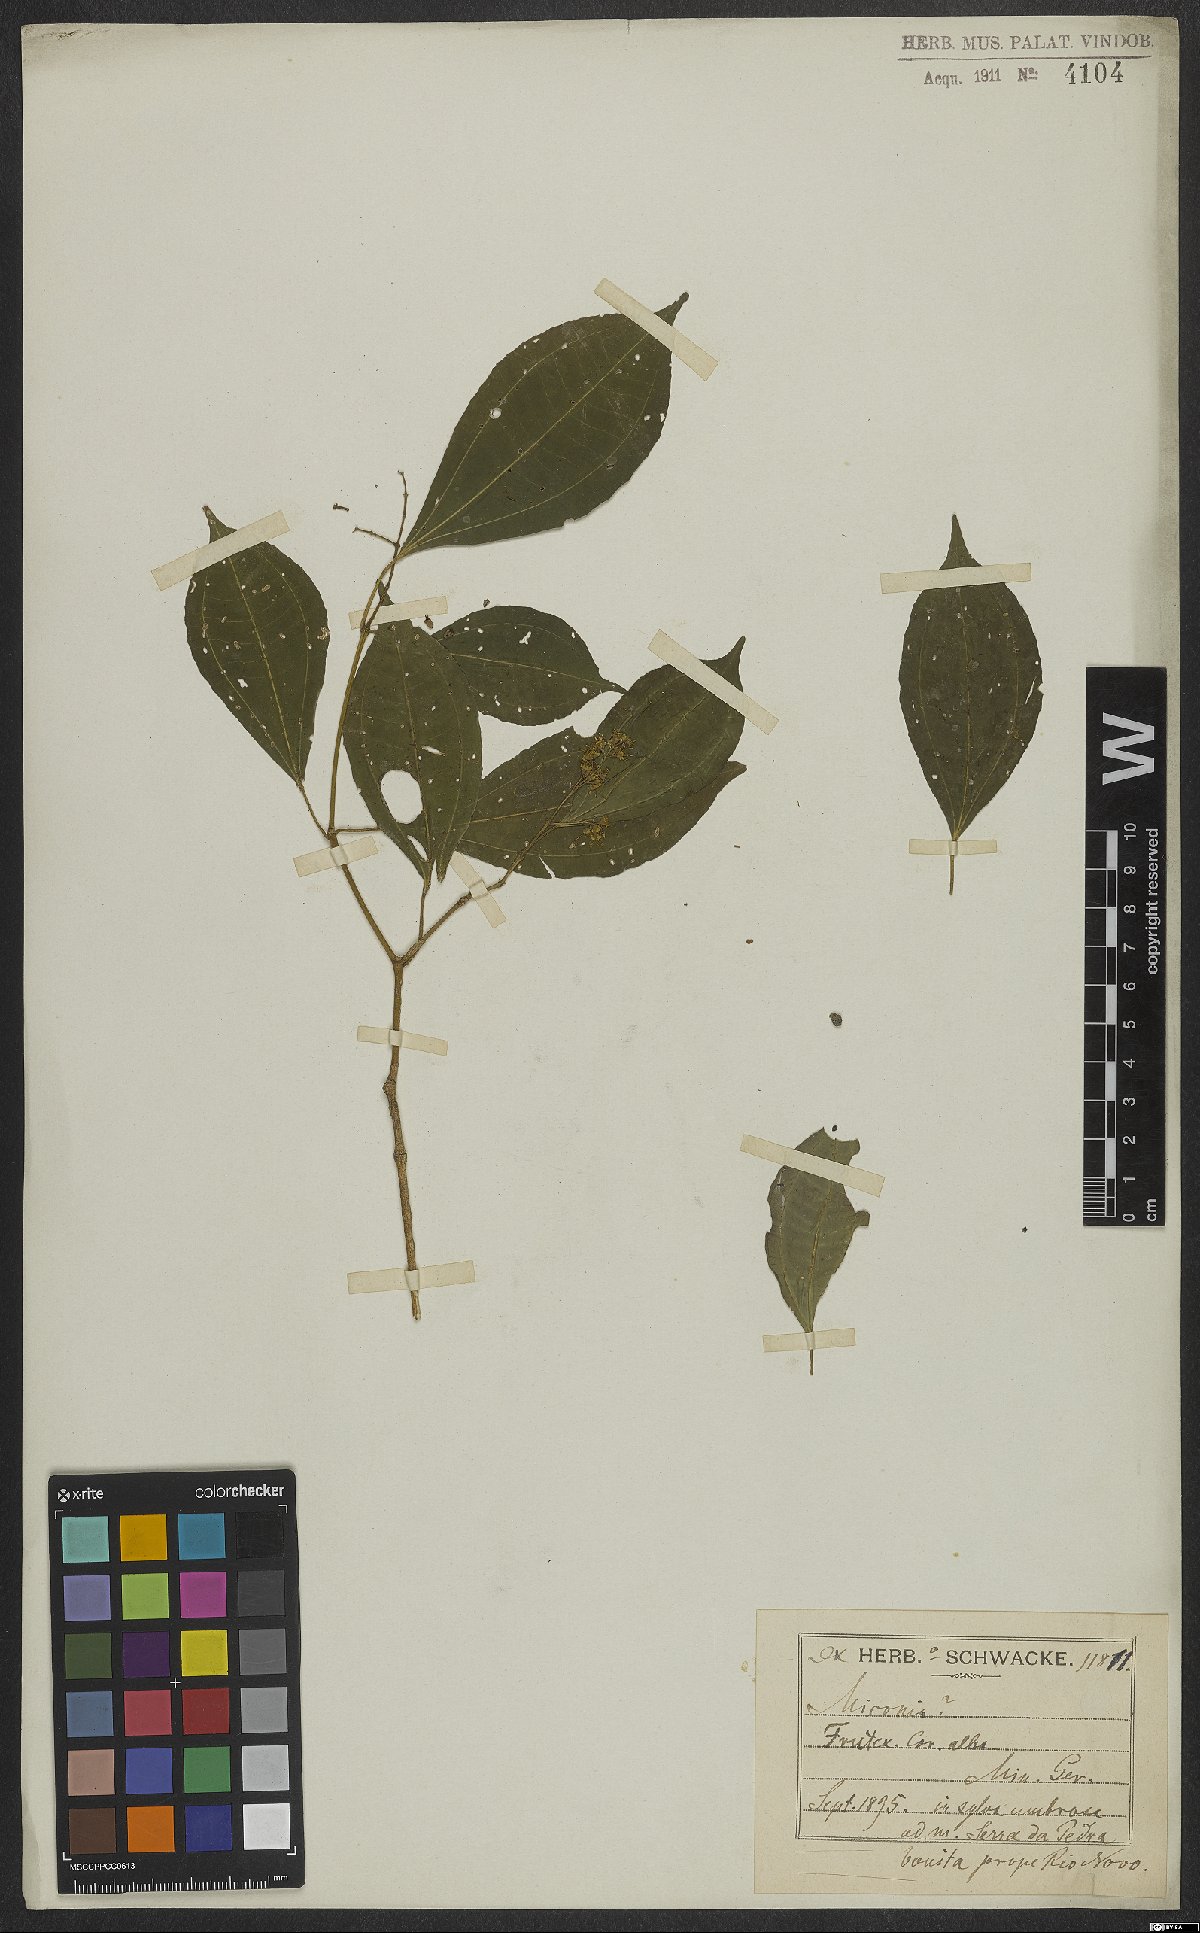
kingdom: Plantae
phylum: Tracheophyta
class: Magnoliopsida
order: Myrtales
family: Melastomataceae
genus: Miconia
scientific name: Miconia
